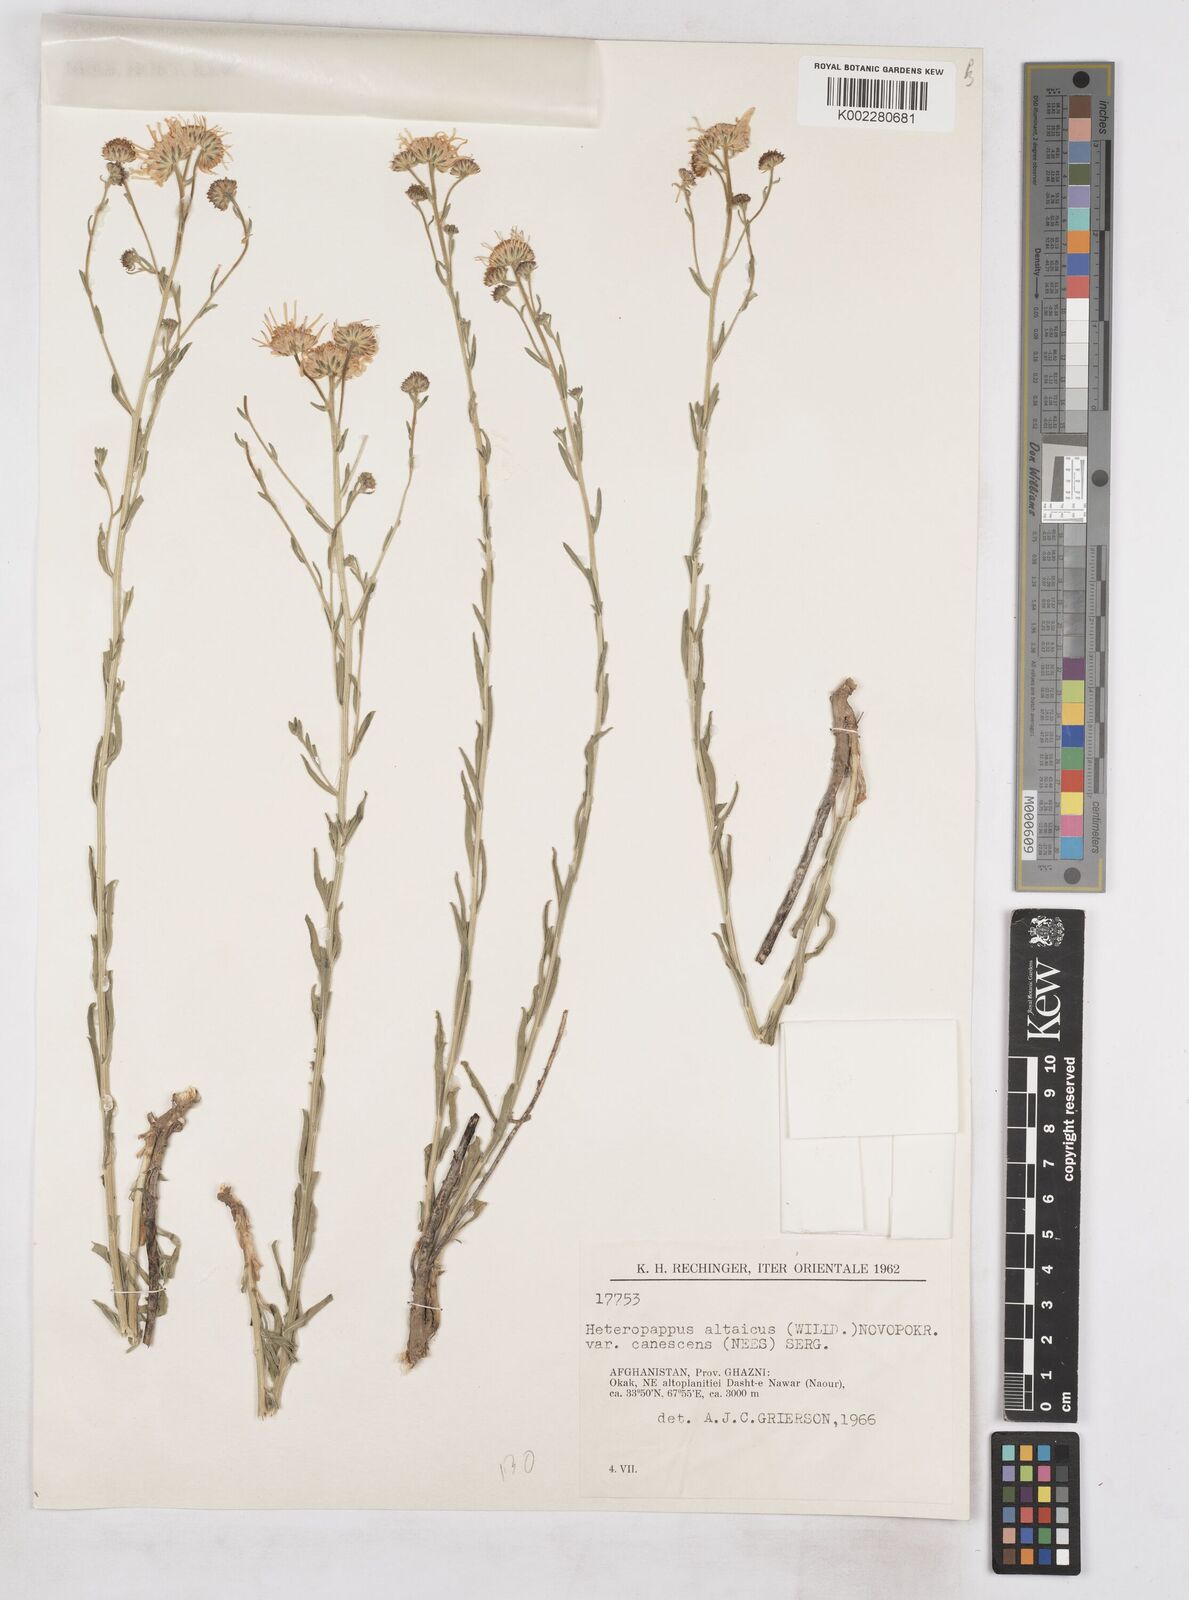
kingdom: Plantae
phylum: Tracheophyta
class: Magnoliopsida
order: Asterales
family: Asteraceae
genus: Heteropappus
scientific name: Heteropappus altaicus
